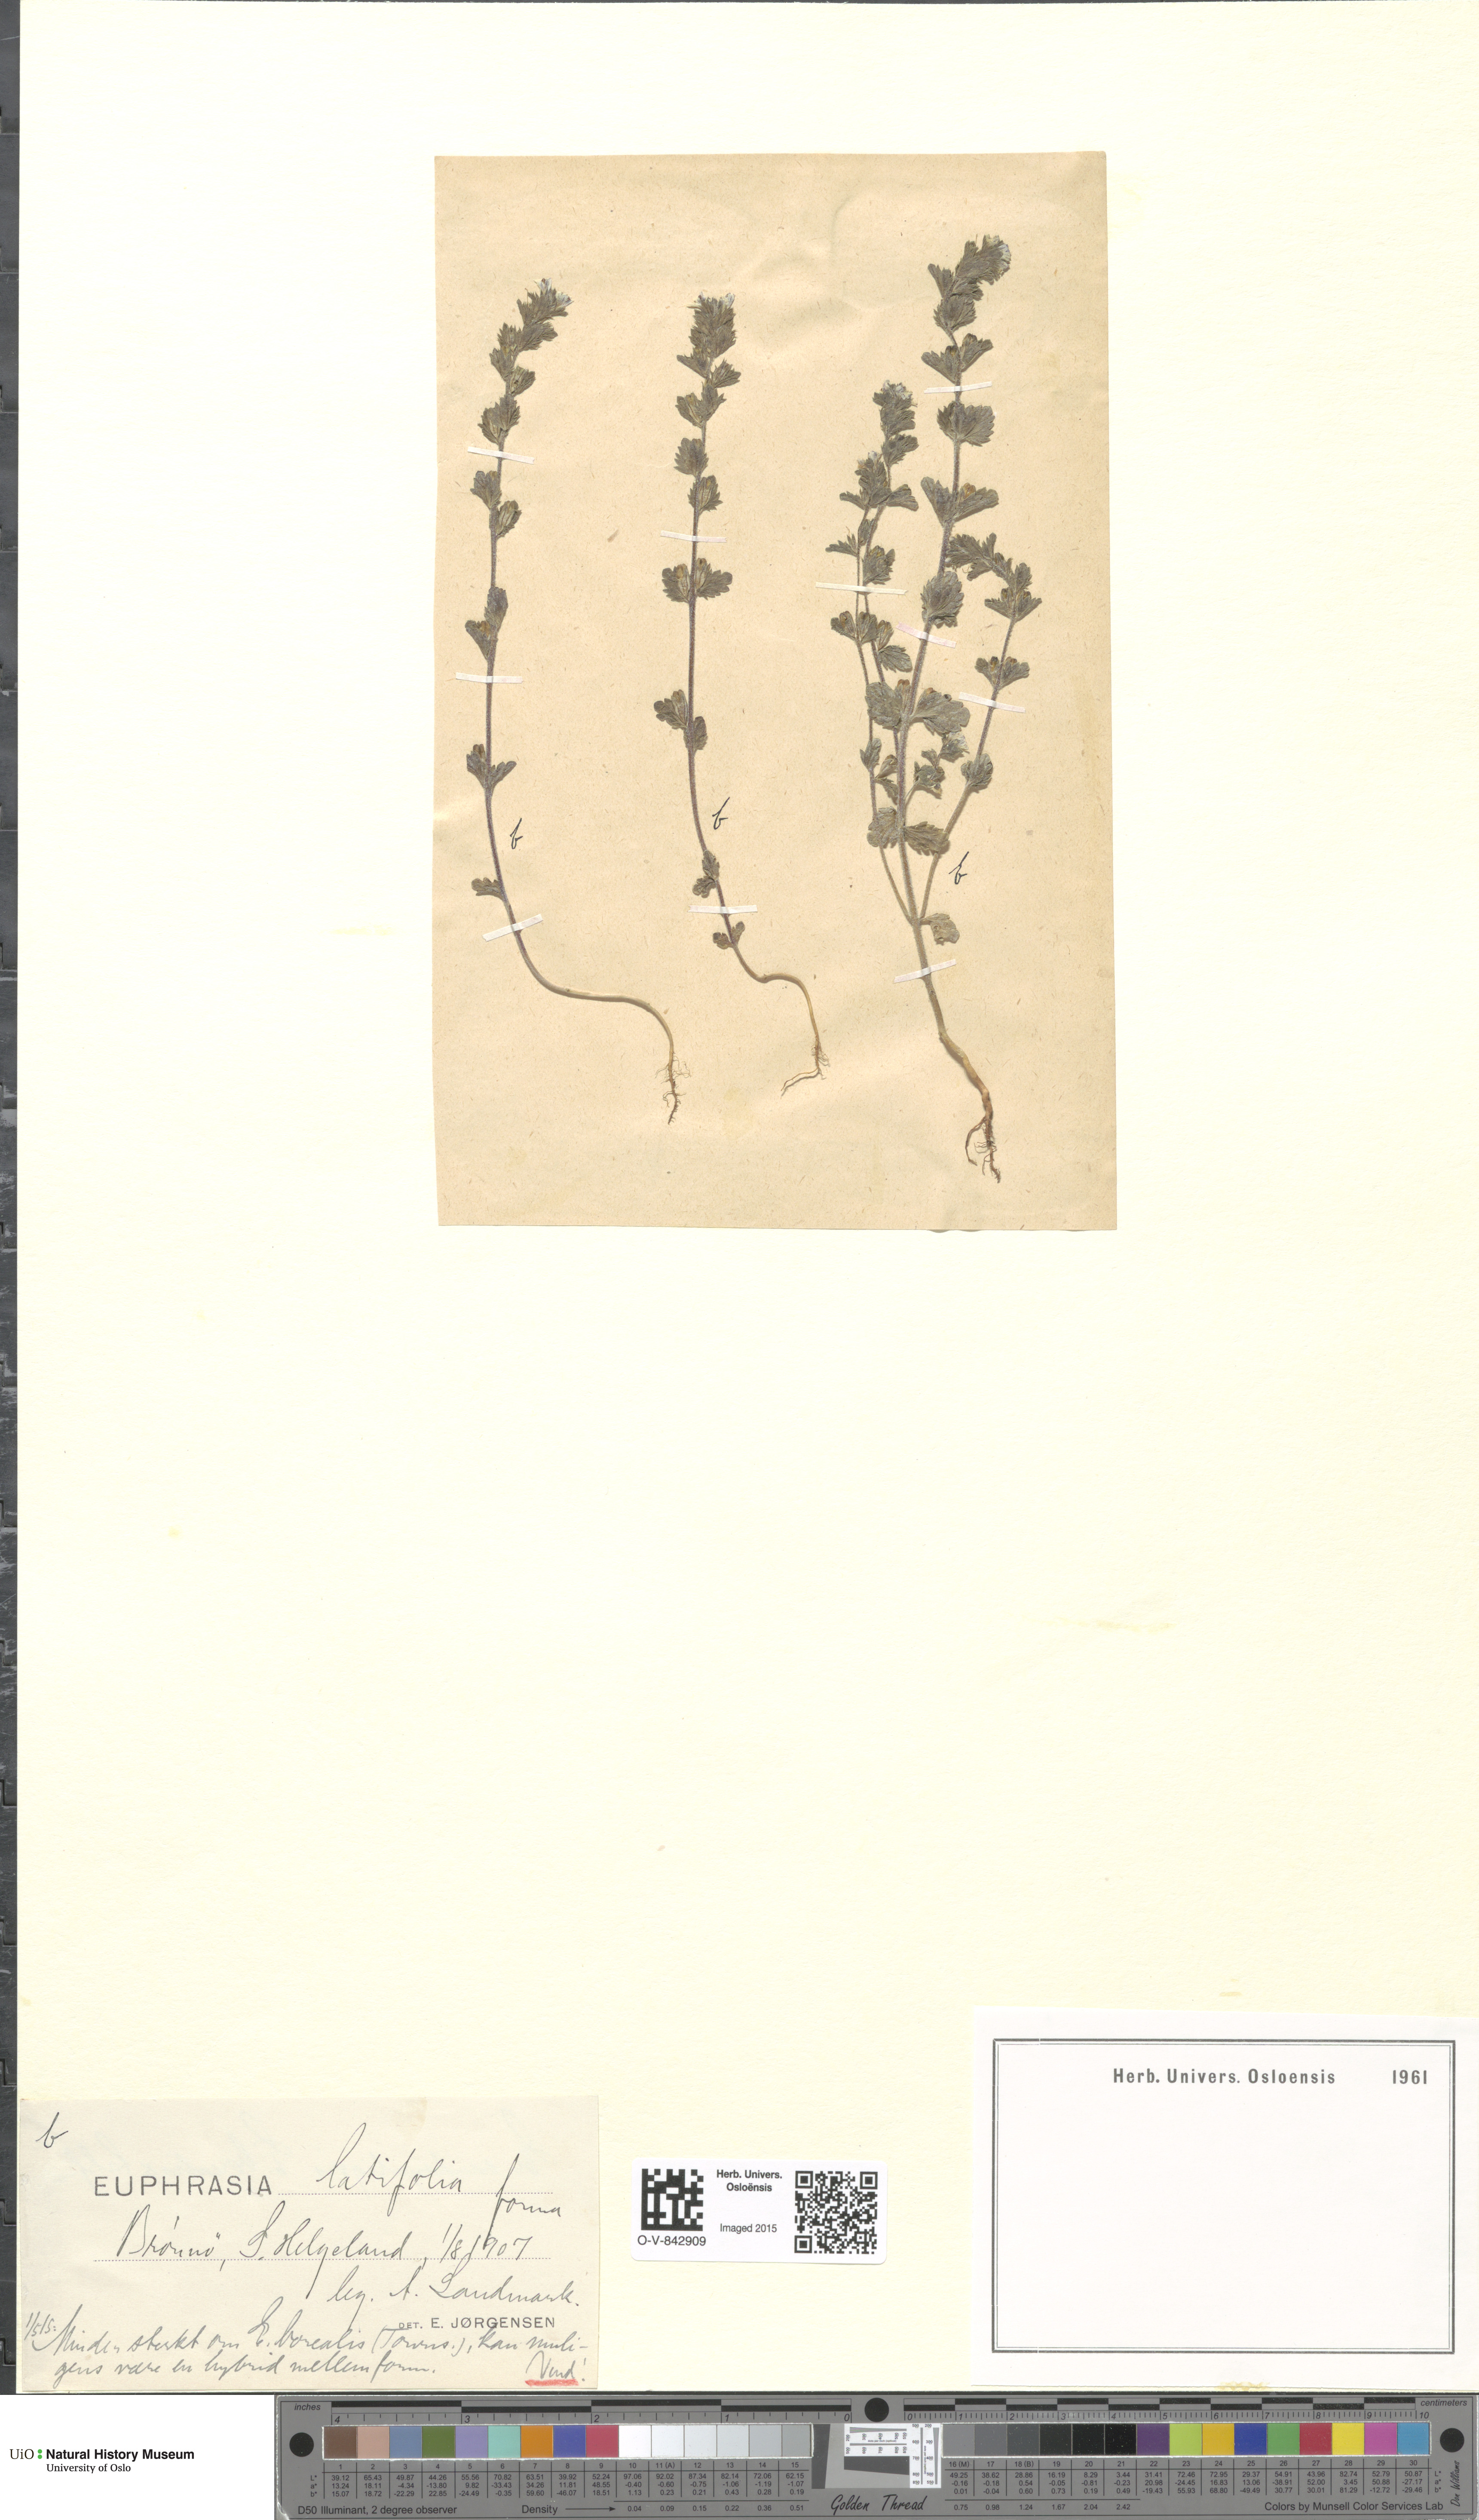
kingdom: Plantae
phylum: Tracheophyta
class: Magnoliopsida
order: Lamiales
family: Orobanchaceae
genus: Euphrasia
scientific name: Euphrasia wettsteinii
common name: Wettstein's eyebright
